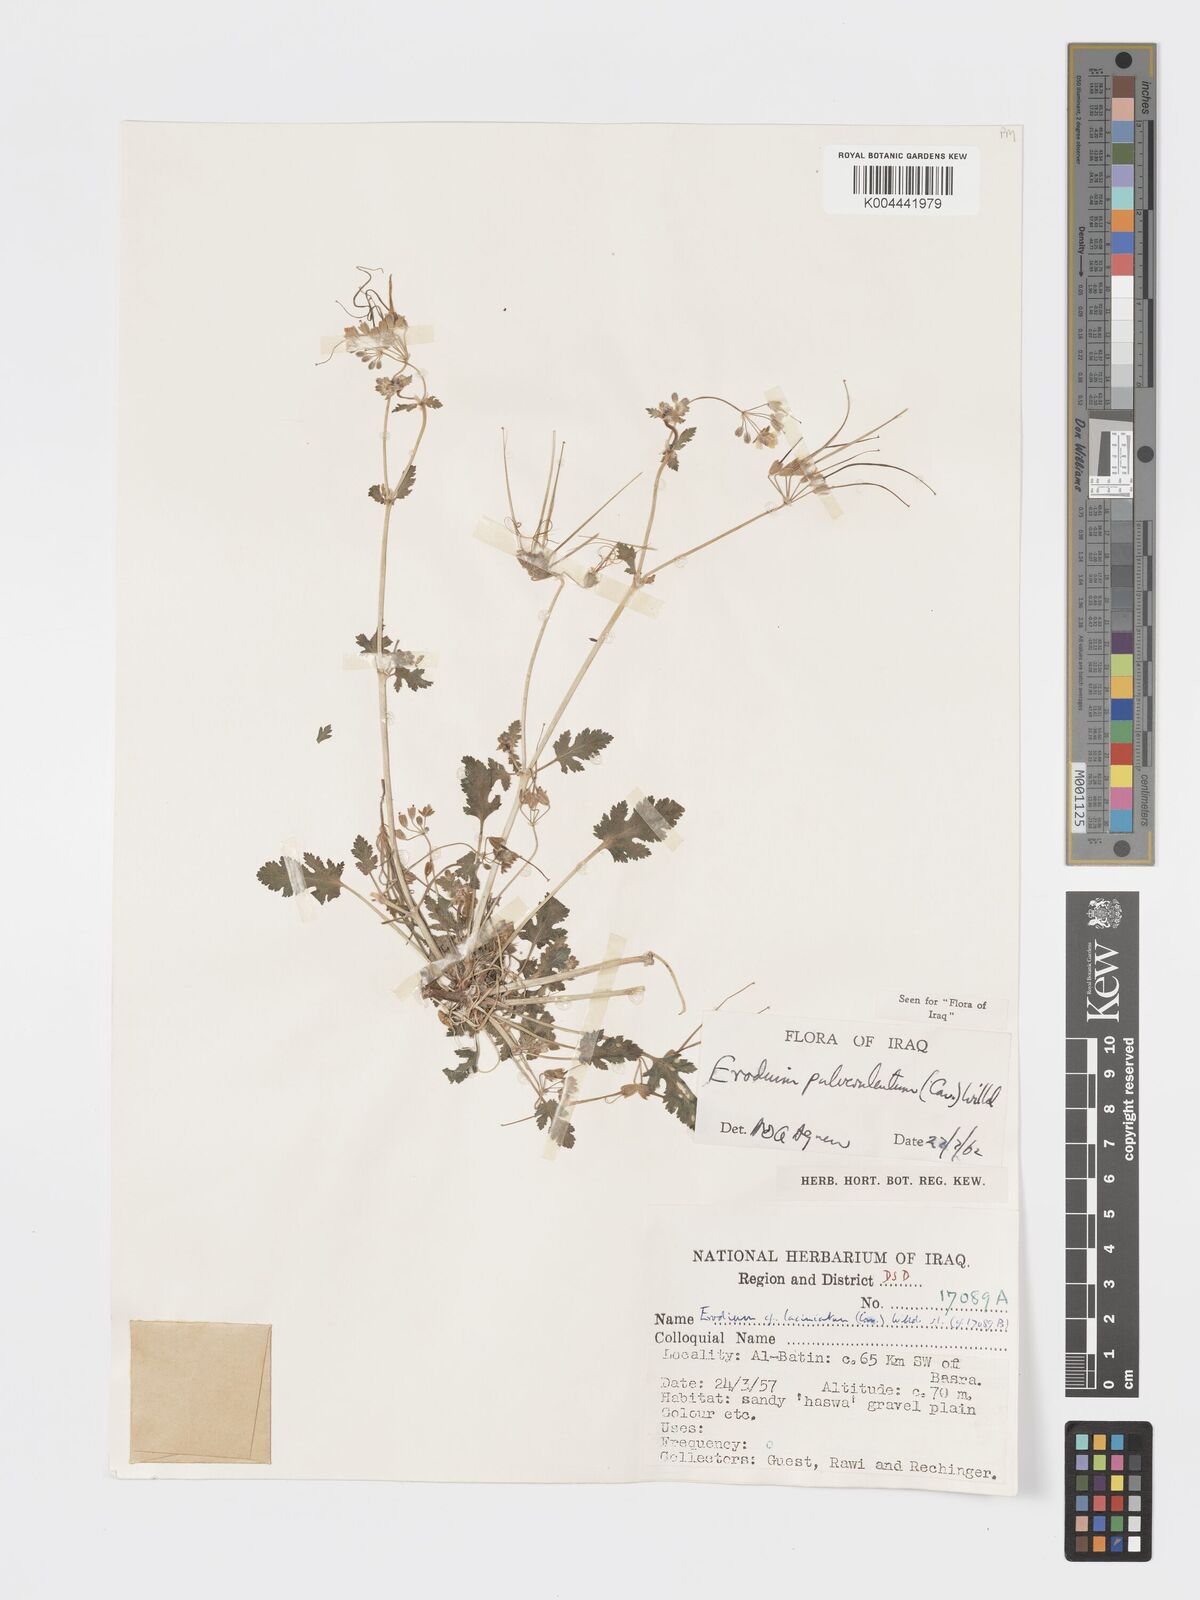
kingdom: Plantae
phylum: Tracheophyta
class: Magnoliopsida
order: Geraniales
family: Geraniaceae
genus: Erodium
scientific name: Erodium laciniatum
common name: Cutleaf stork's bill
